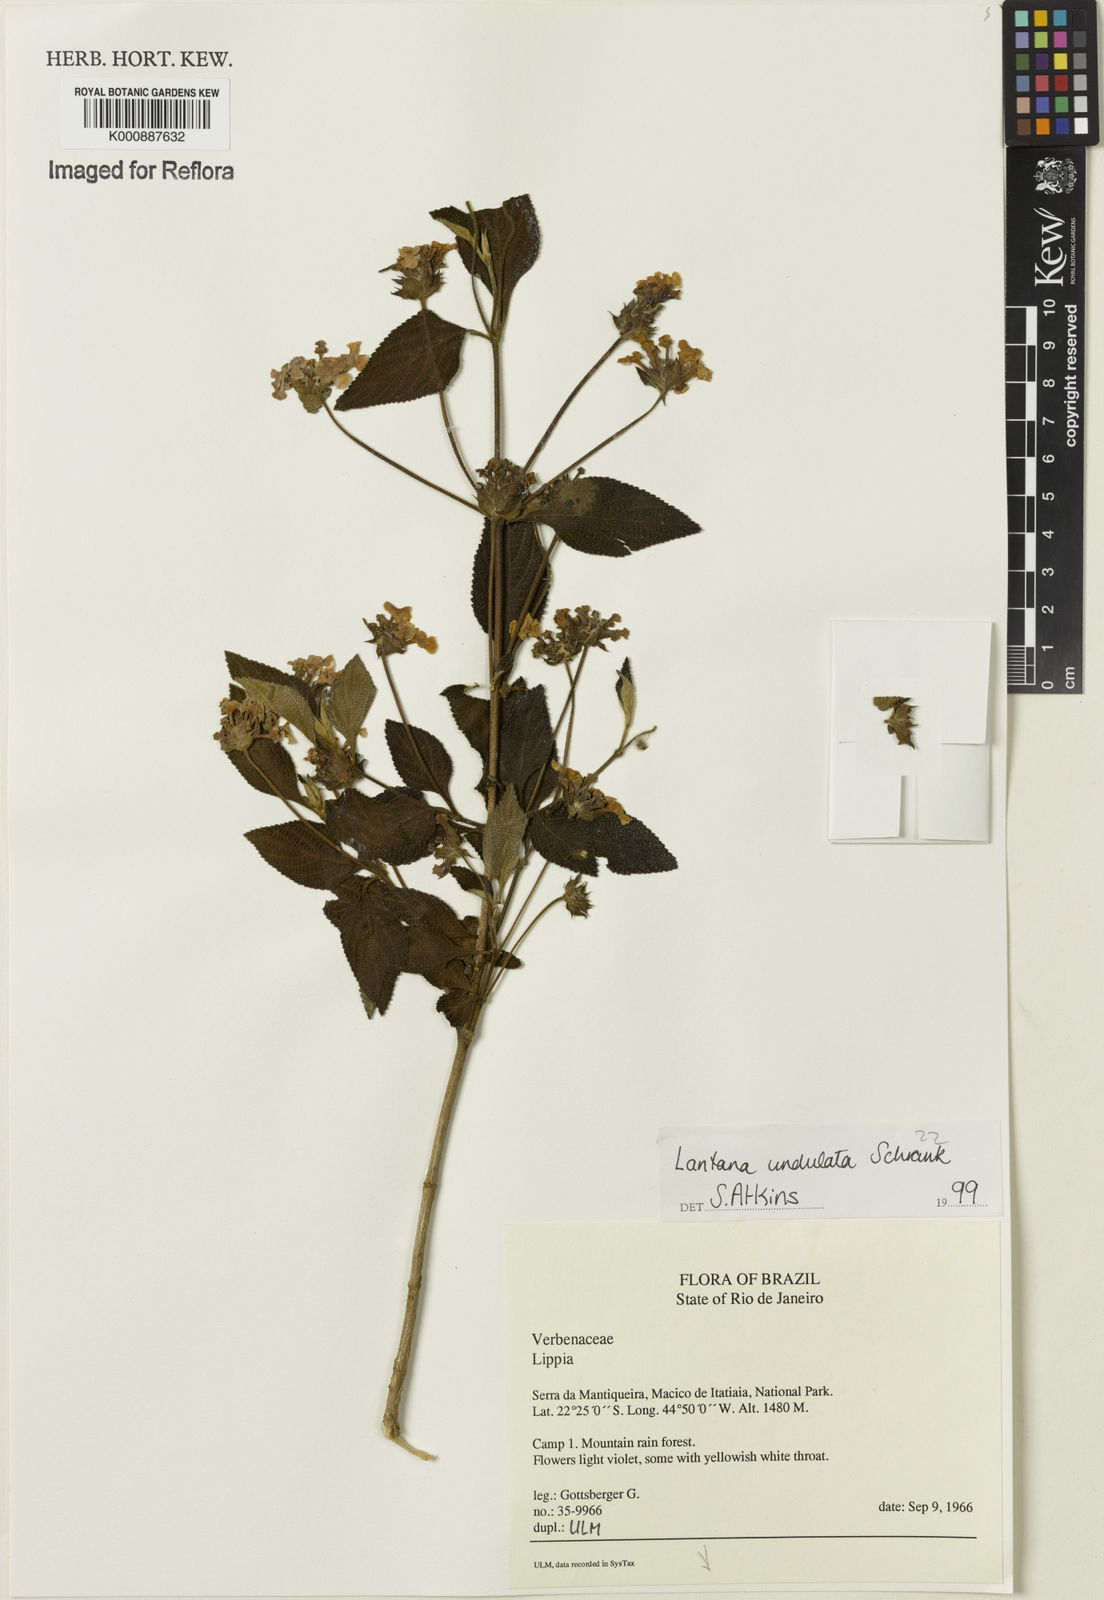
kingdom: Plantae
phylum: Tracheophyta
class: Magnoliopsida
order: Lamiales
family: Verbenaceae
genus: Lantana
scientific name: Lantana undulata
